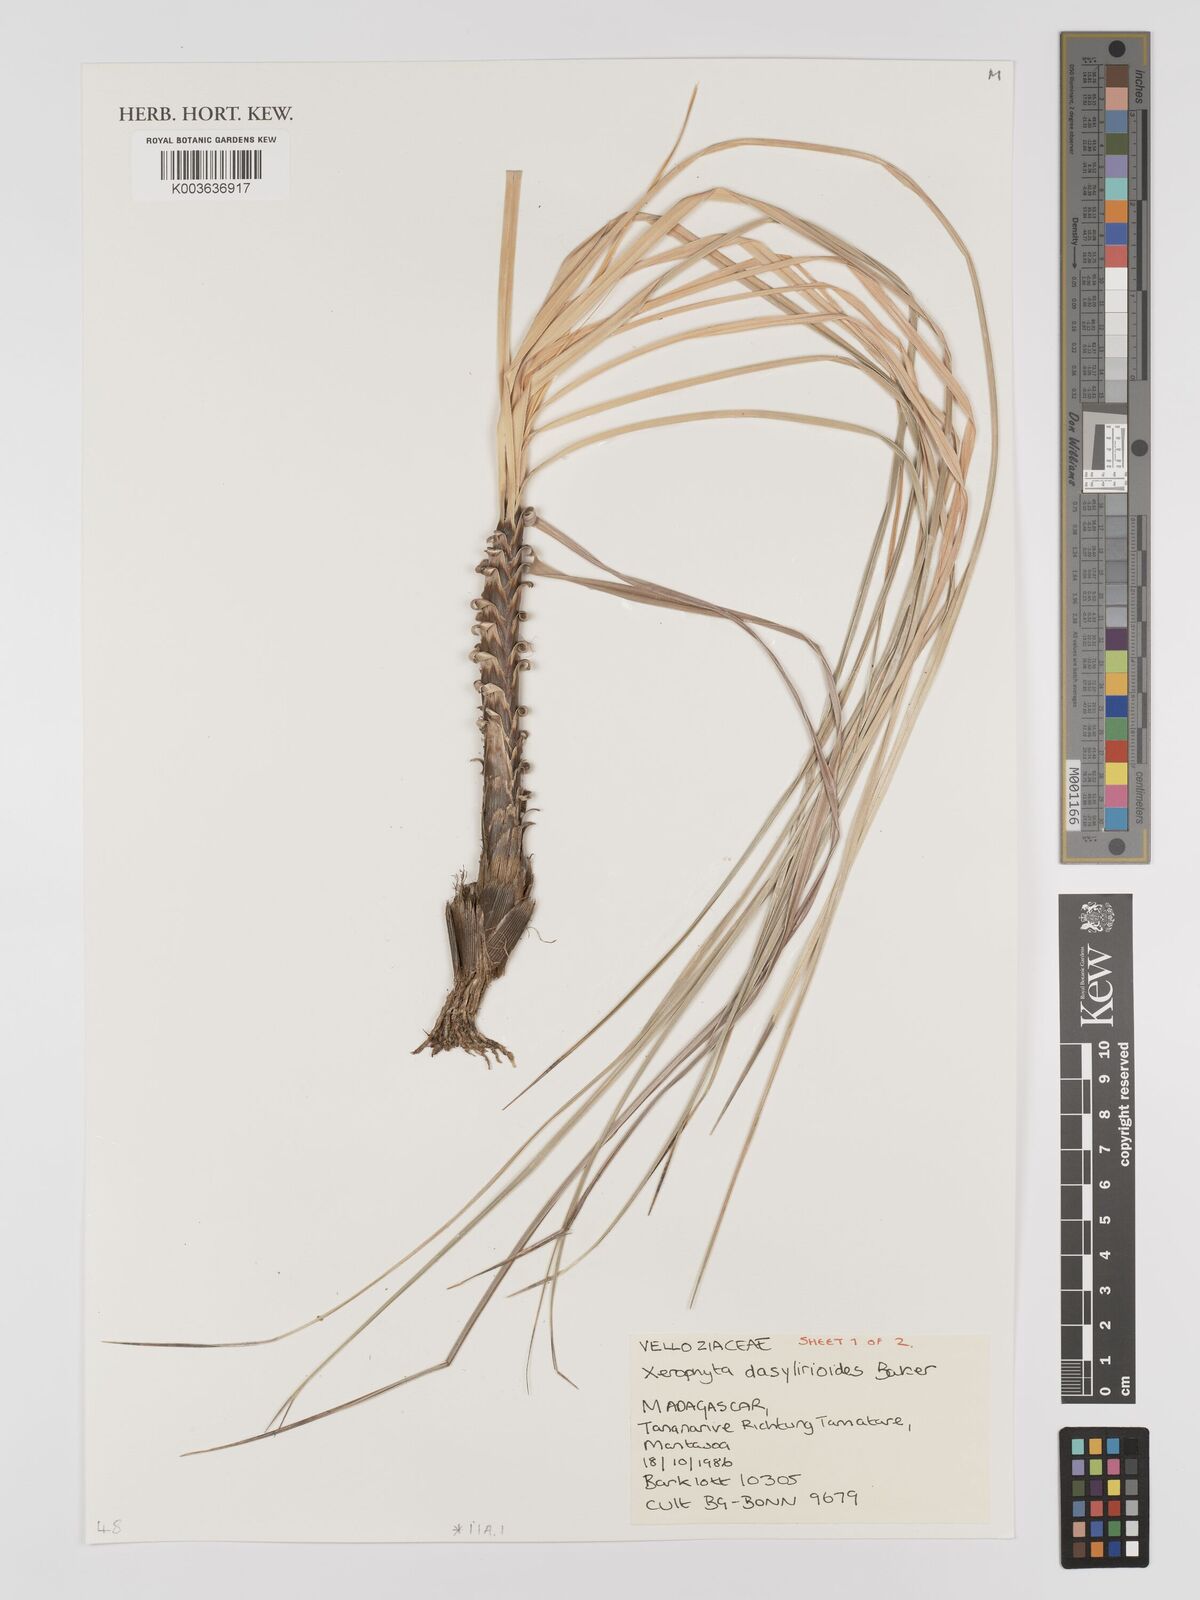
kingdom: Plantae
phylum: Tracheophyta
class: Liliopsida
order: Pandanales
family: Velloziaceae
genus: Xerophyta
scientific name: Xerophyta dasylirioides
